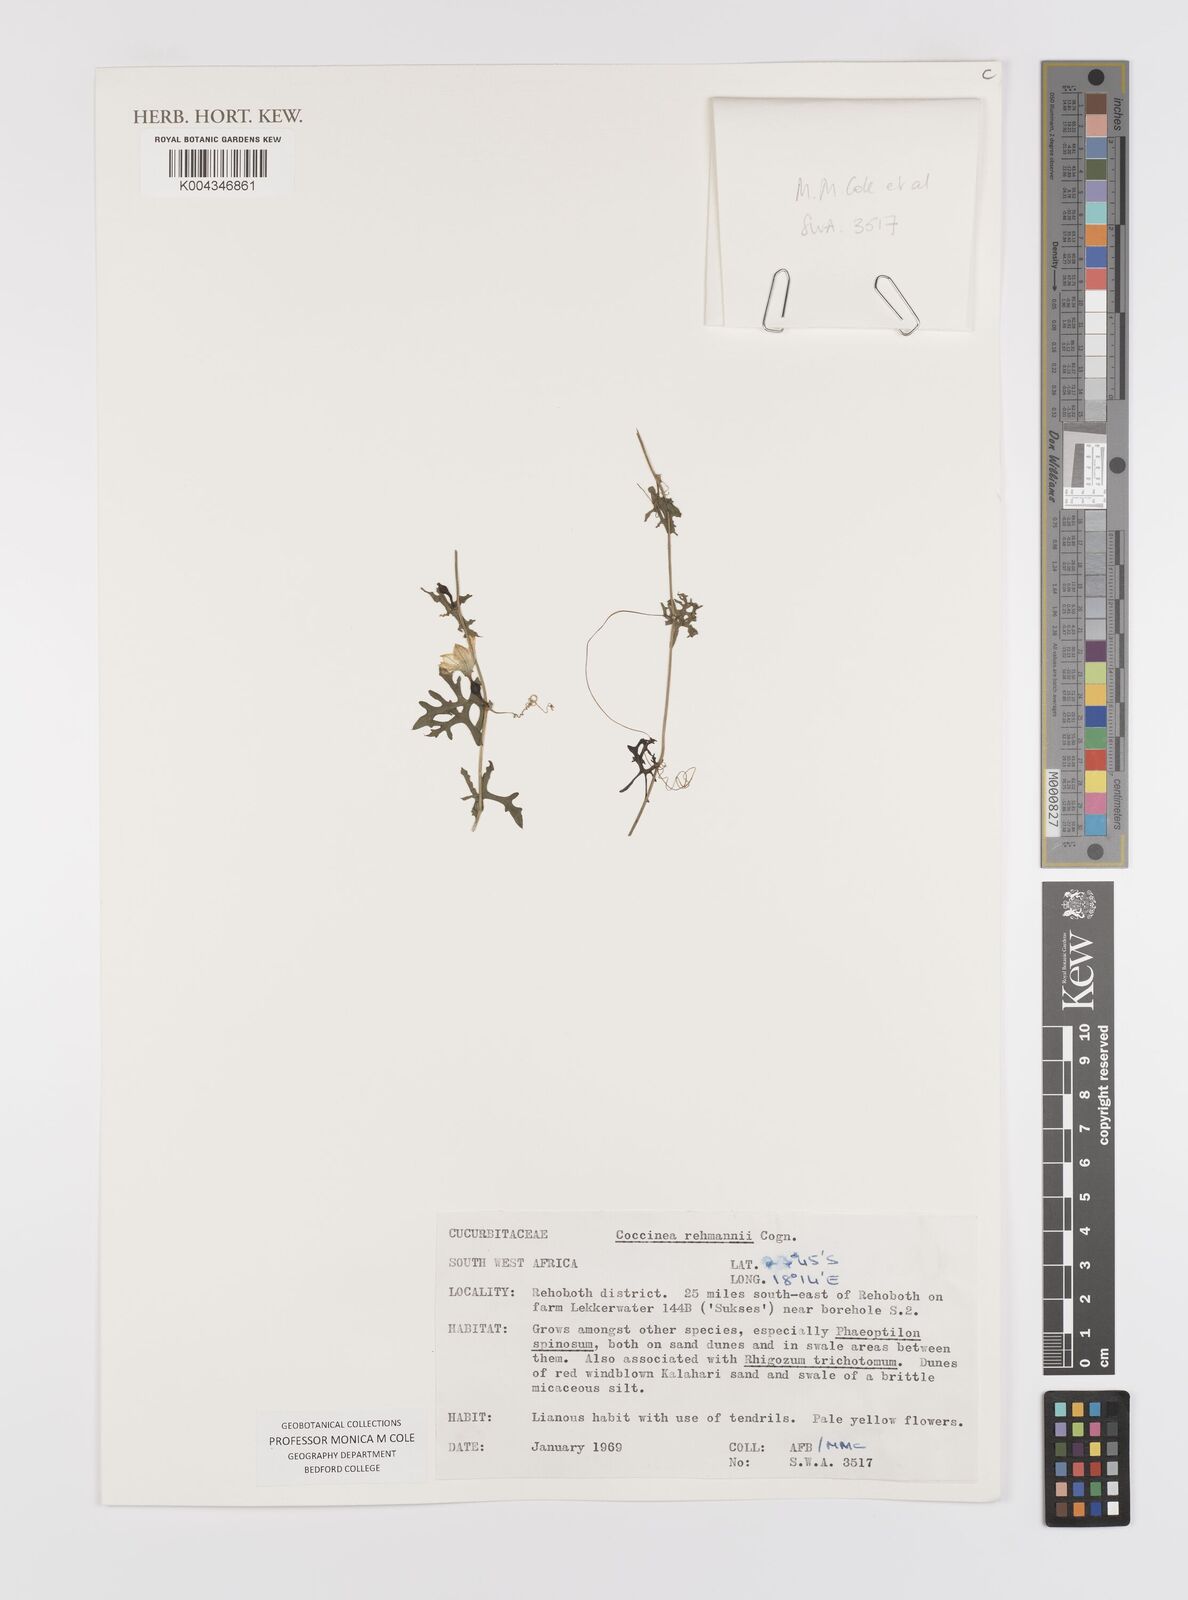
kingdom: Plantae
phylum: Tracheophyta
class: Magnoliopsida
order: Cucurbitales
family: Cucurbitaceae
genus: Coccinia
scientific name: Coccinia rehmannii
